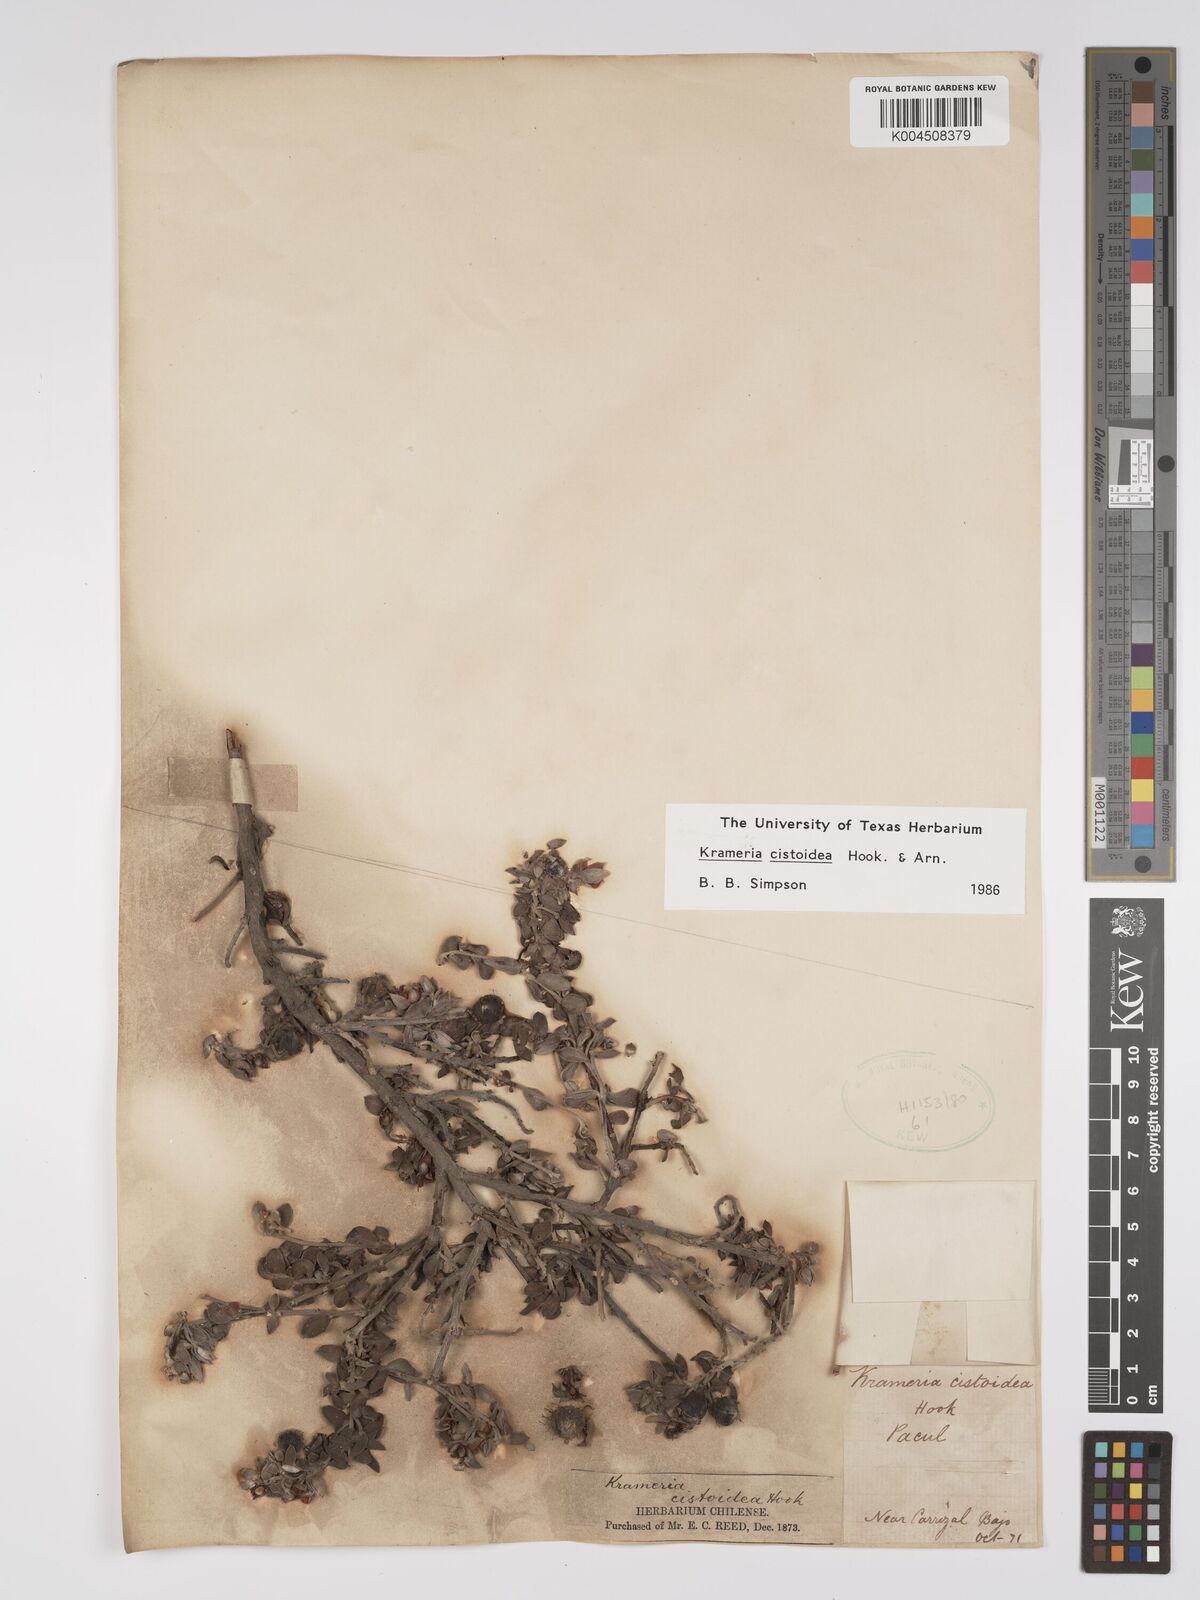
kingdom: Plantae
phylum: Tracheophyta
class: Magnoliopsida
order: Zygophyllales
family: Krameriaceae
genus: Krameria
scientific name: Krameria cistoidea
